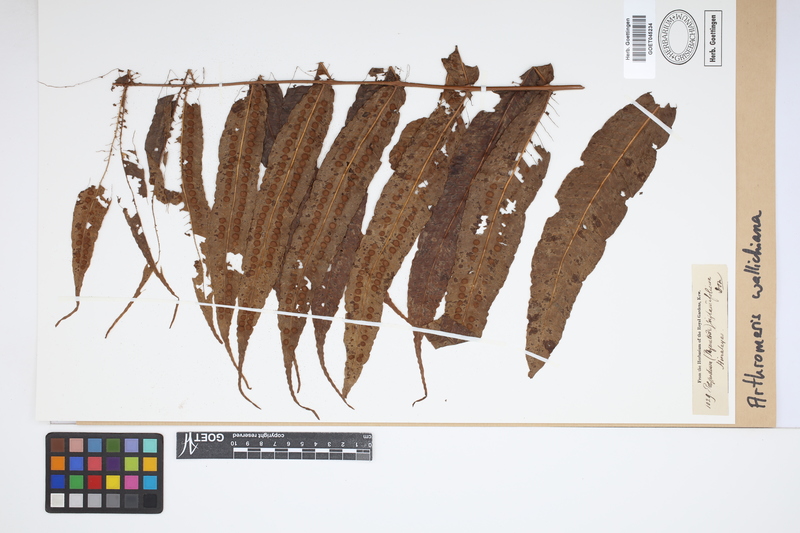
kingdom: Plantae
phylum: Tracheophyta
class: Polypodiopsida
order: Polypodiales
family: Polypodiaceae
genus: Selliguea
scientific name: Selliguea capitellata
